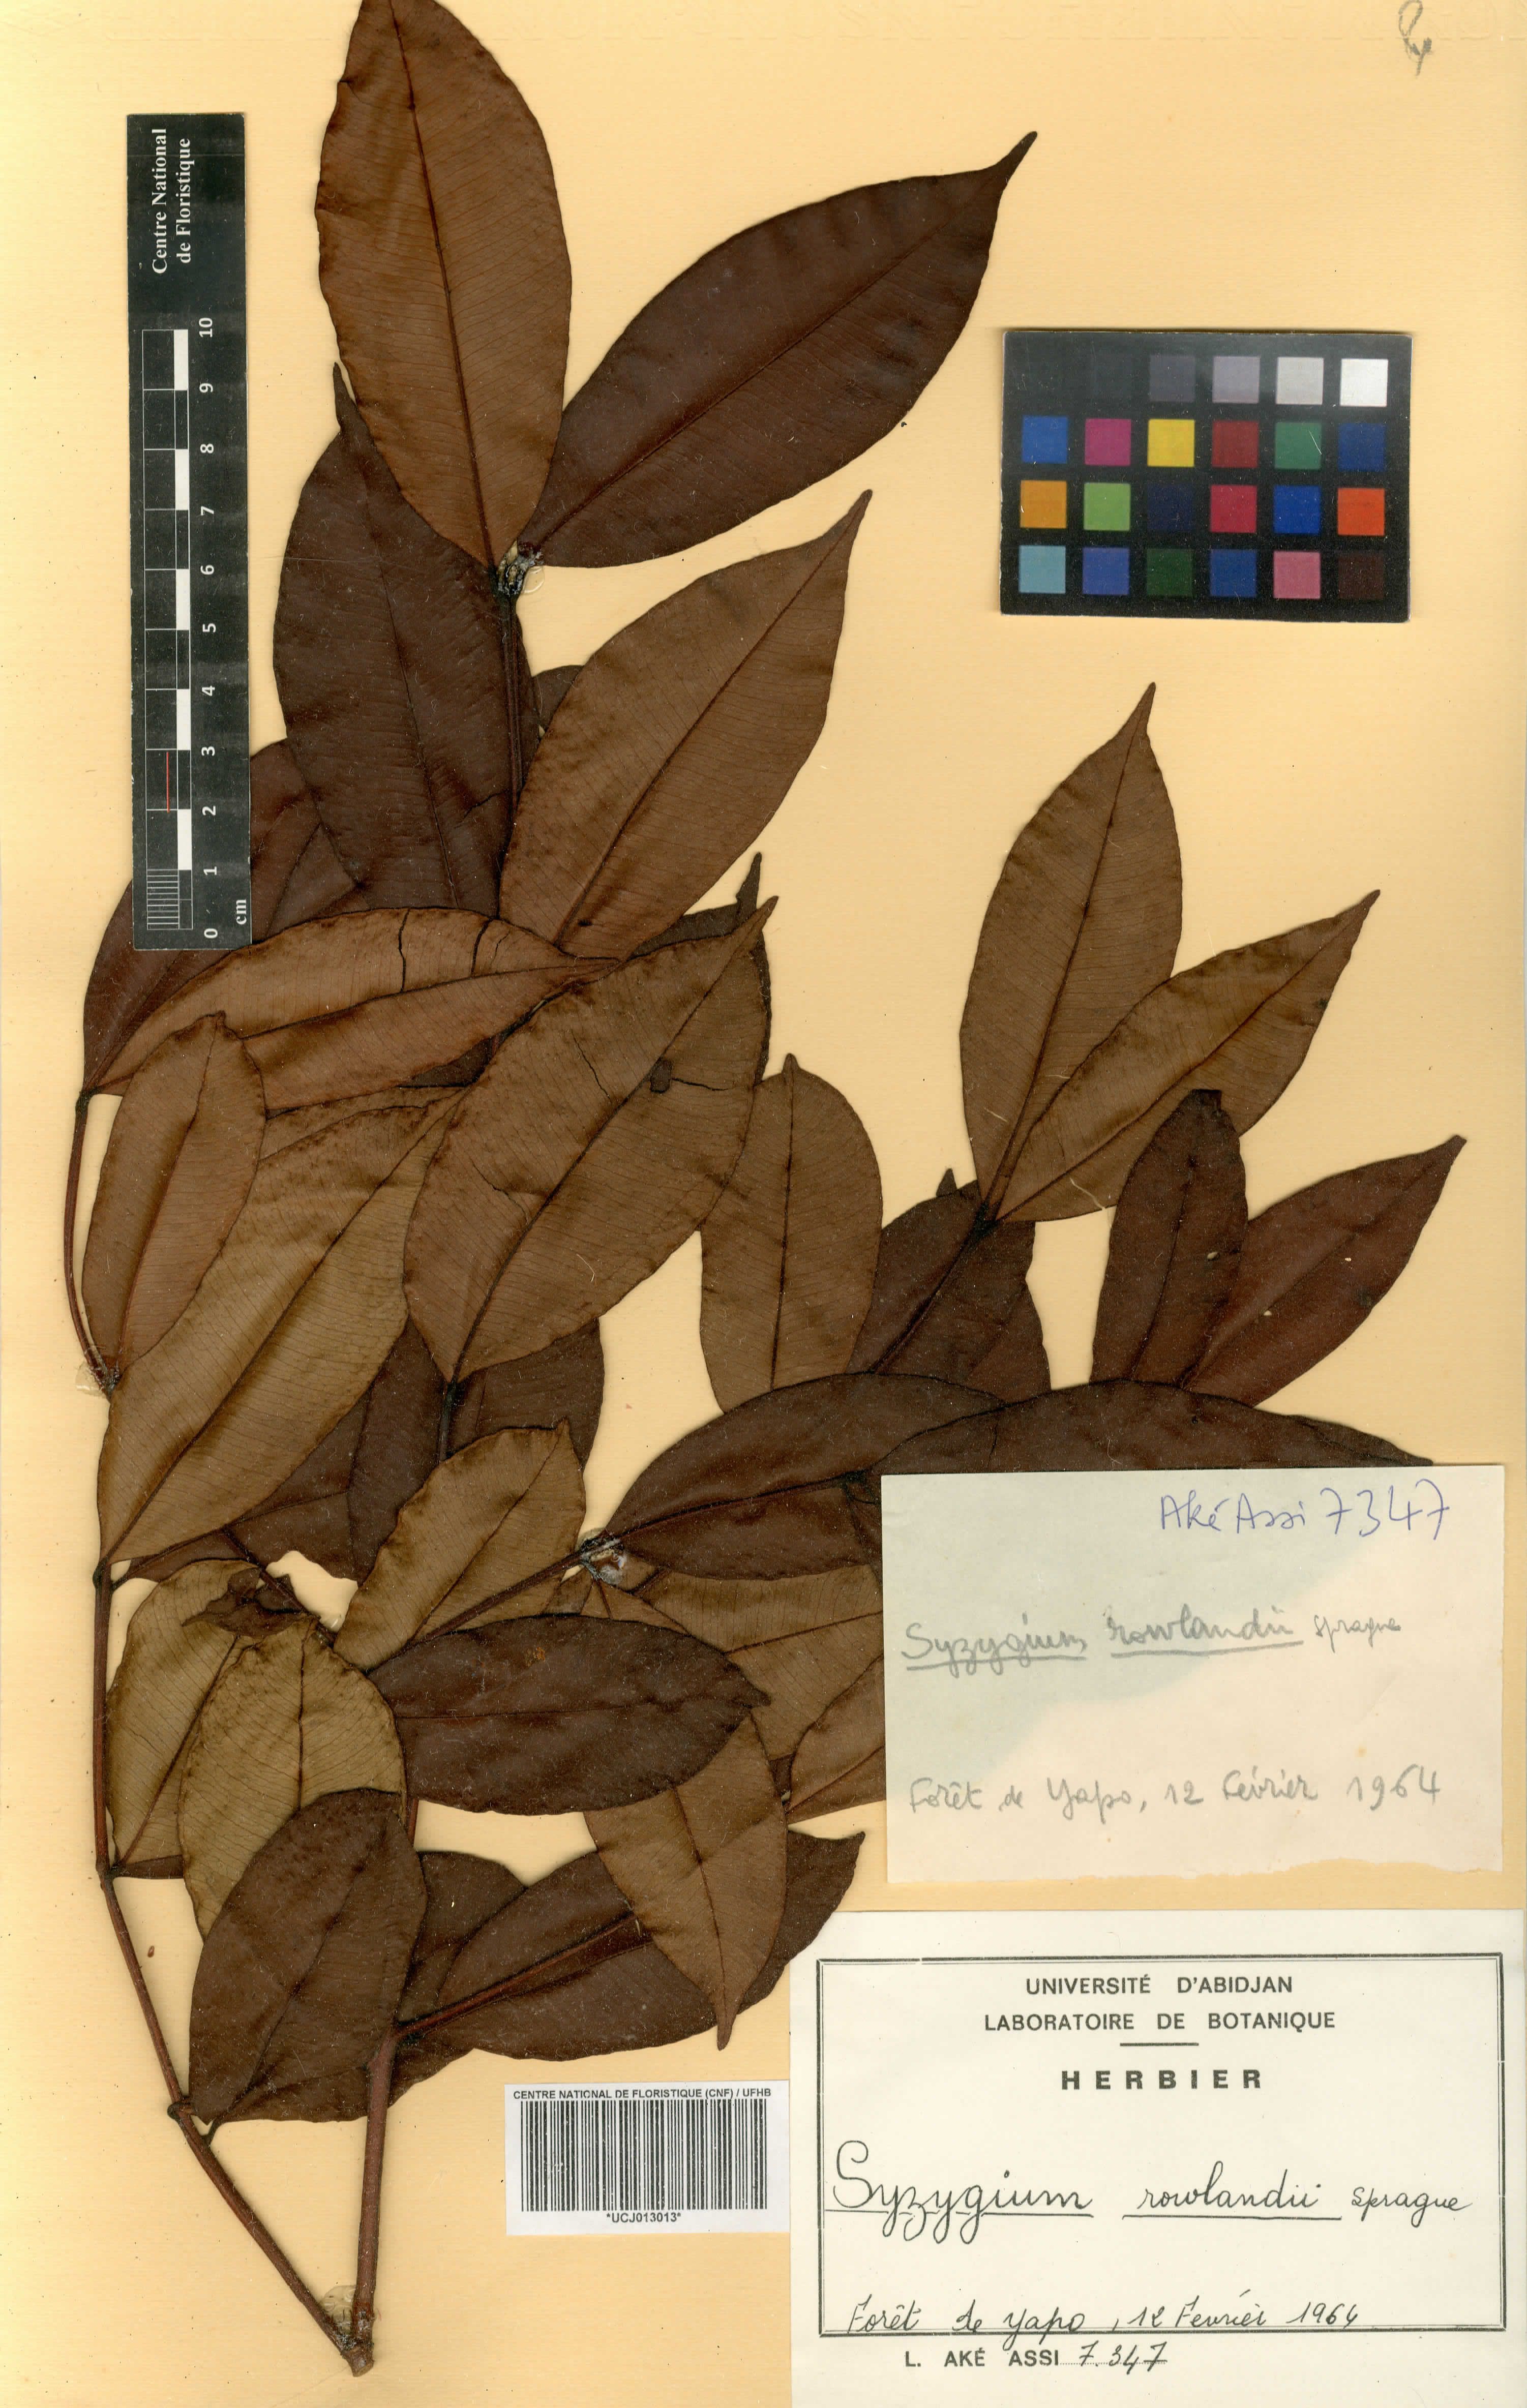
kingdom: Plantae
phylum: Tracheophyta
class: Magnoliopsida
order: Myrtales
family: Myrtaceae
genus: Syzygium
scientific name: Syzygium rowlandii
